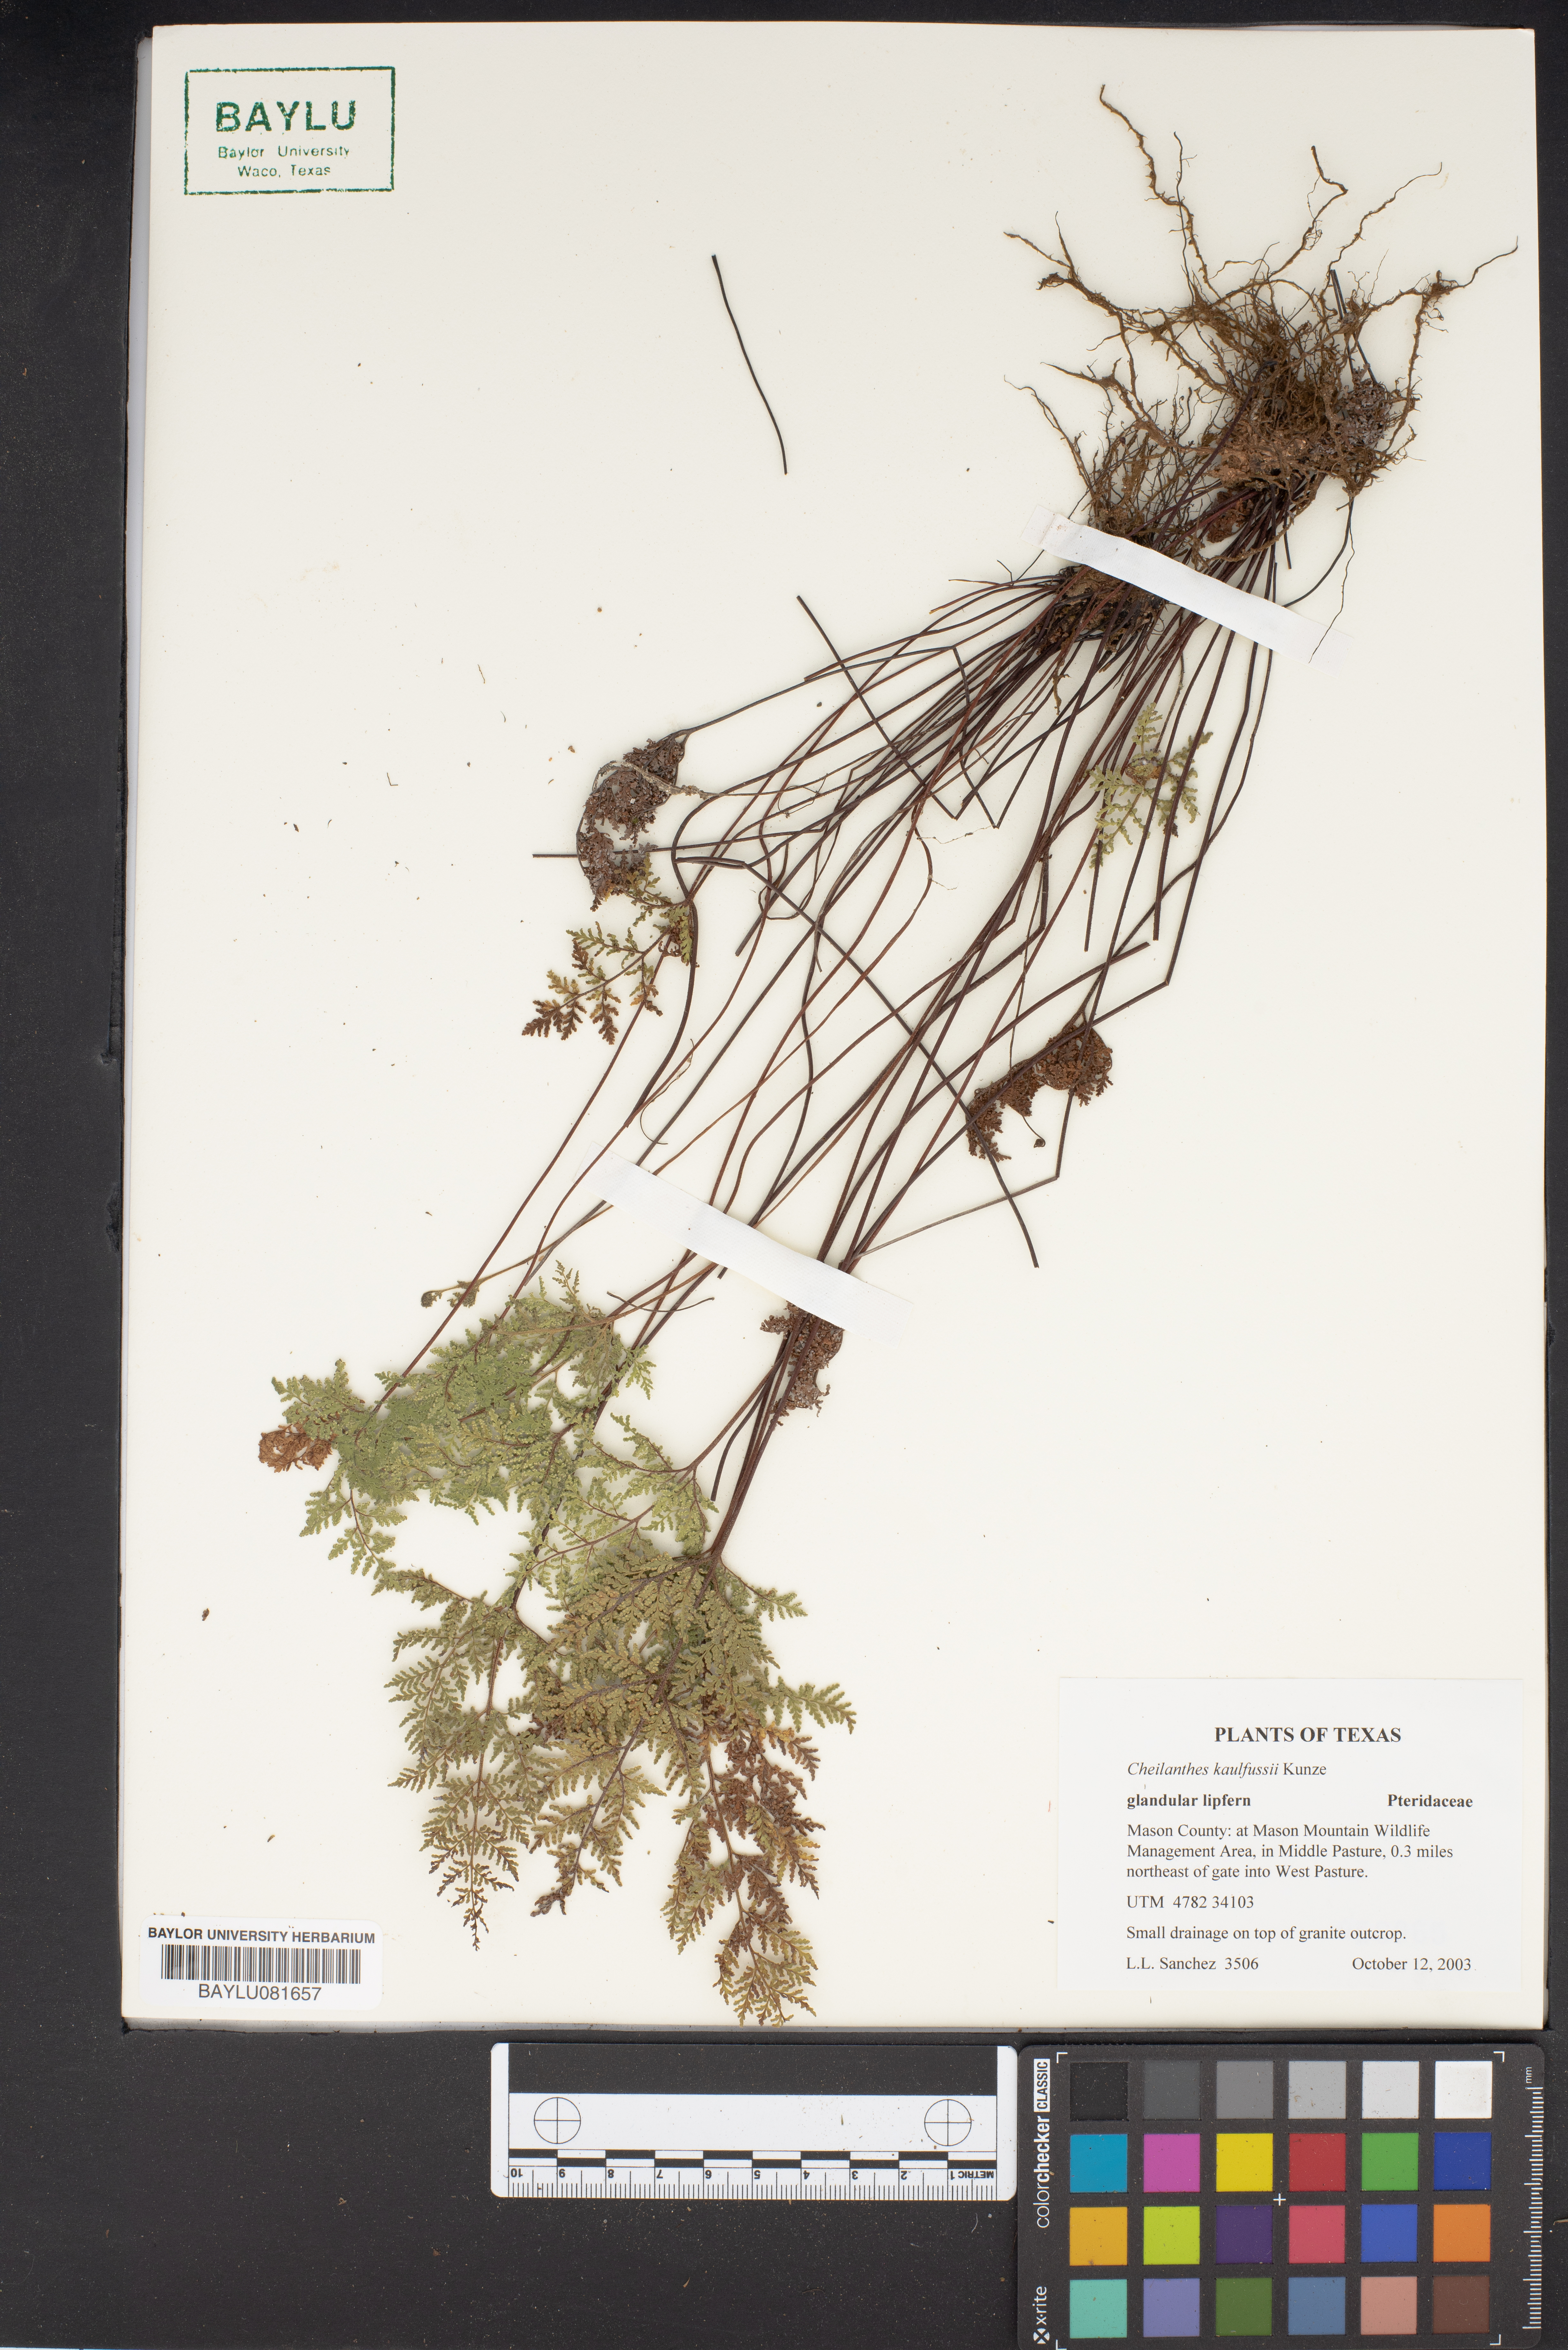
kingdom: Plantae
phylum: Tracheophyta
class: Polypodiopsida
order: Polypodiales
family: Pteridaceae
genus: Gaga
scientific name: Gaga kaulfussii
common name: Glandular lip fern
